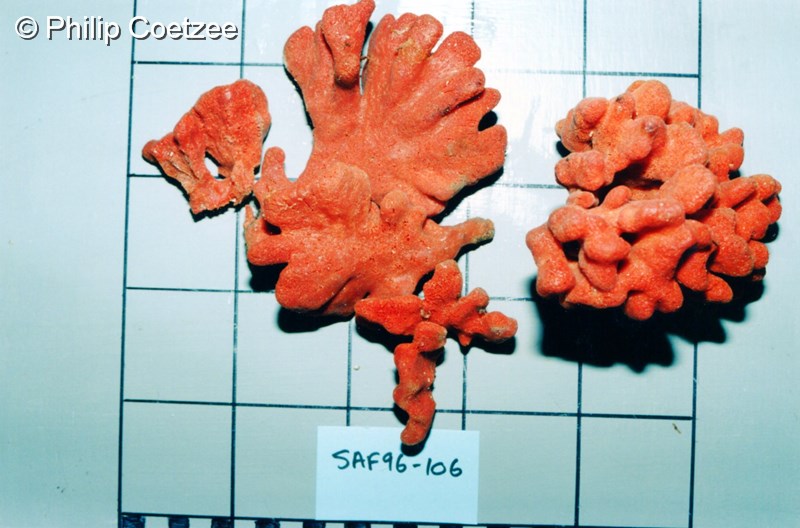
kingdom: Animalia
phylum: Porifera
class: Demospongiae
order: Poecilosclerida
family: Hymedesmiidae
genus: Phorbas
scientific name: Phorbas clathratus
